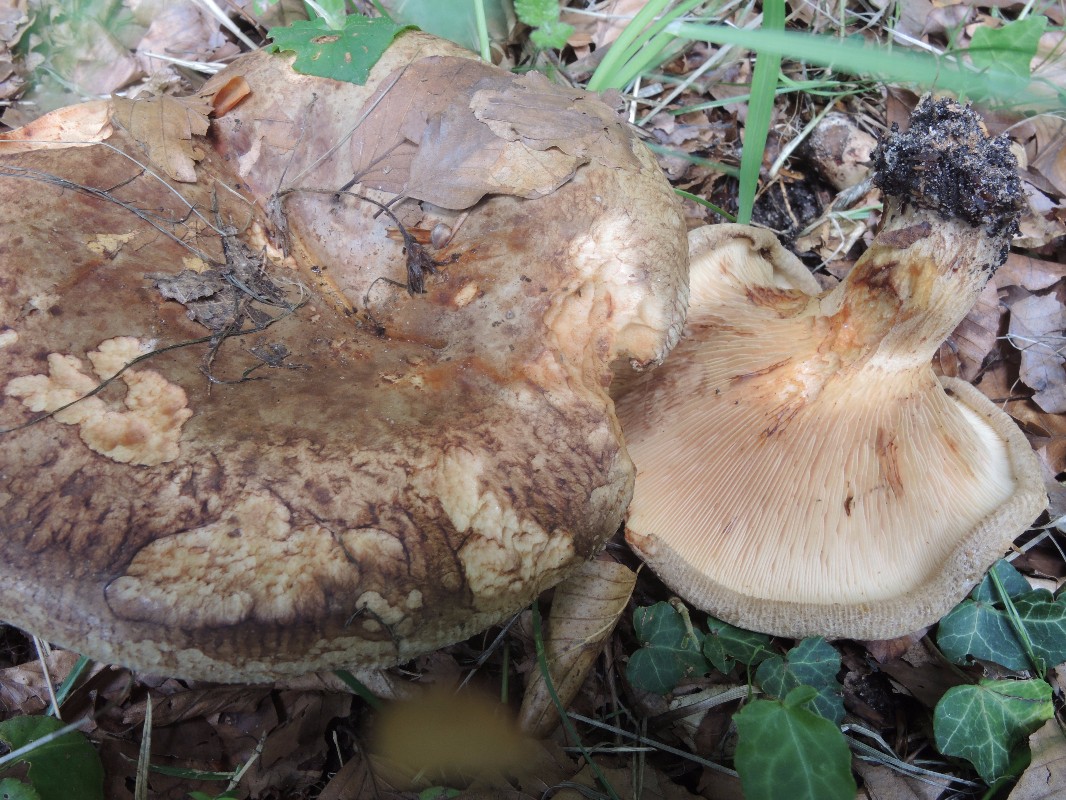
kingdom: Fungi
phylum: Basidiomycota
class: Agaricomycetes
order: Boletales
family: Paxillaceae
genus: Paxillus
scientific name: Paxillus ammoniavirescens
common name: olivensporet netbladhat
